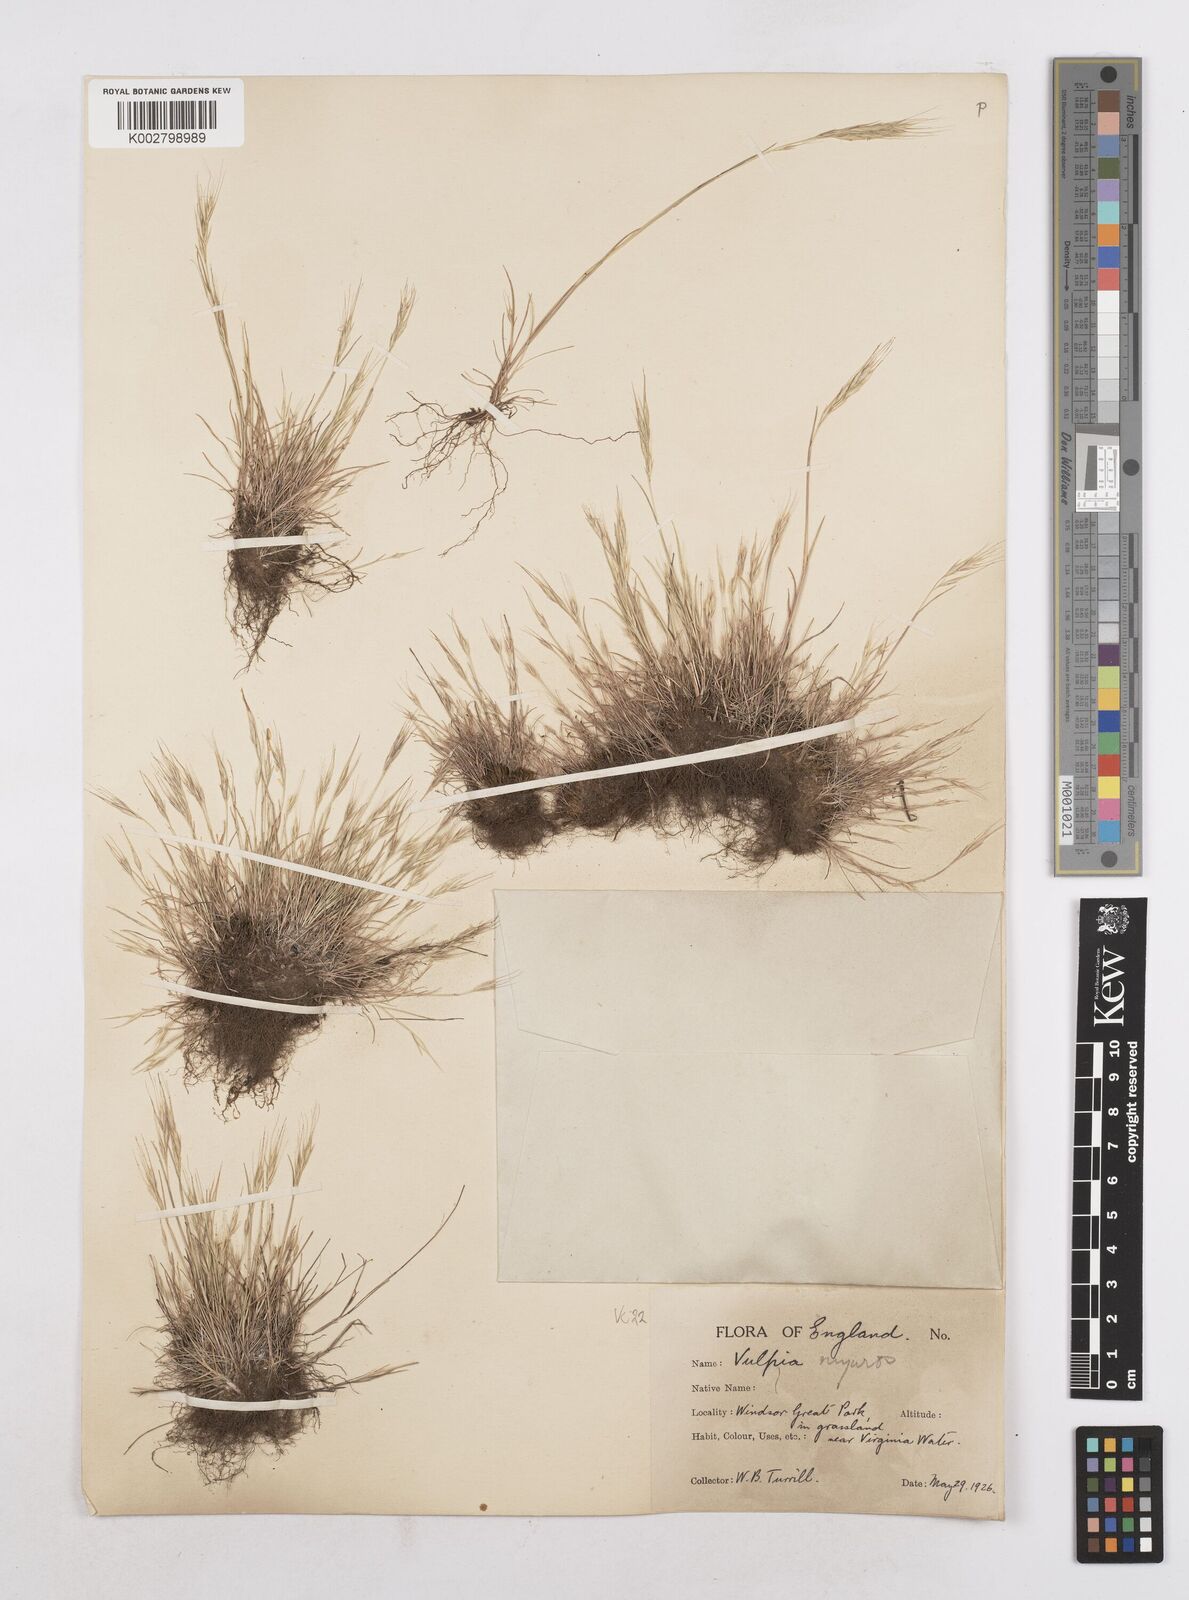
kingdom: Plantae
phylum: Tracheophyta
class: Liliopsida
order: Poales
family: Poaceae
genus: Festuca
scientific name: Festuca bromoides
